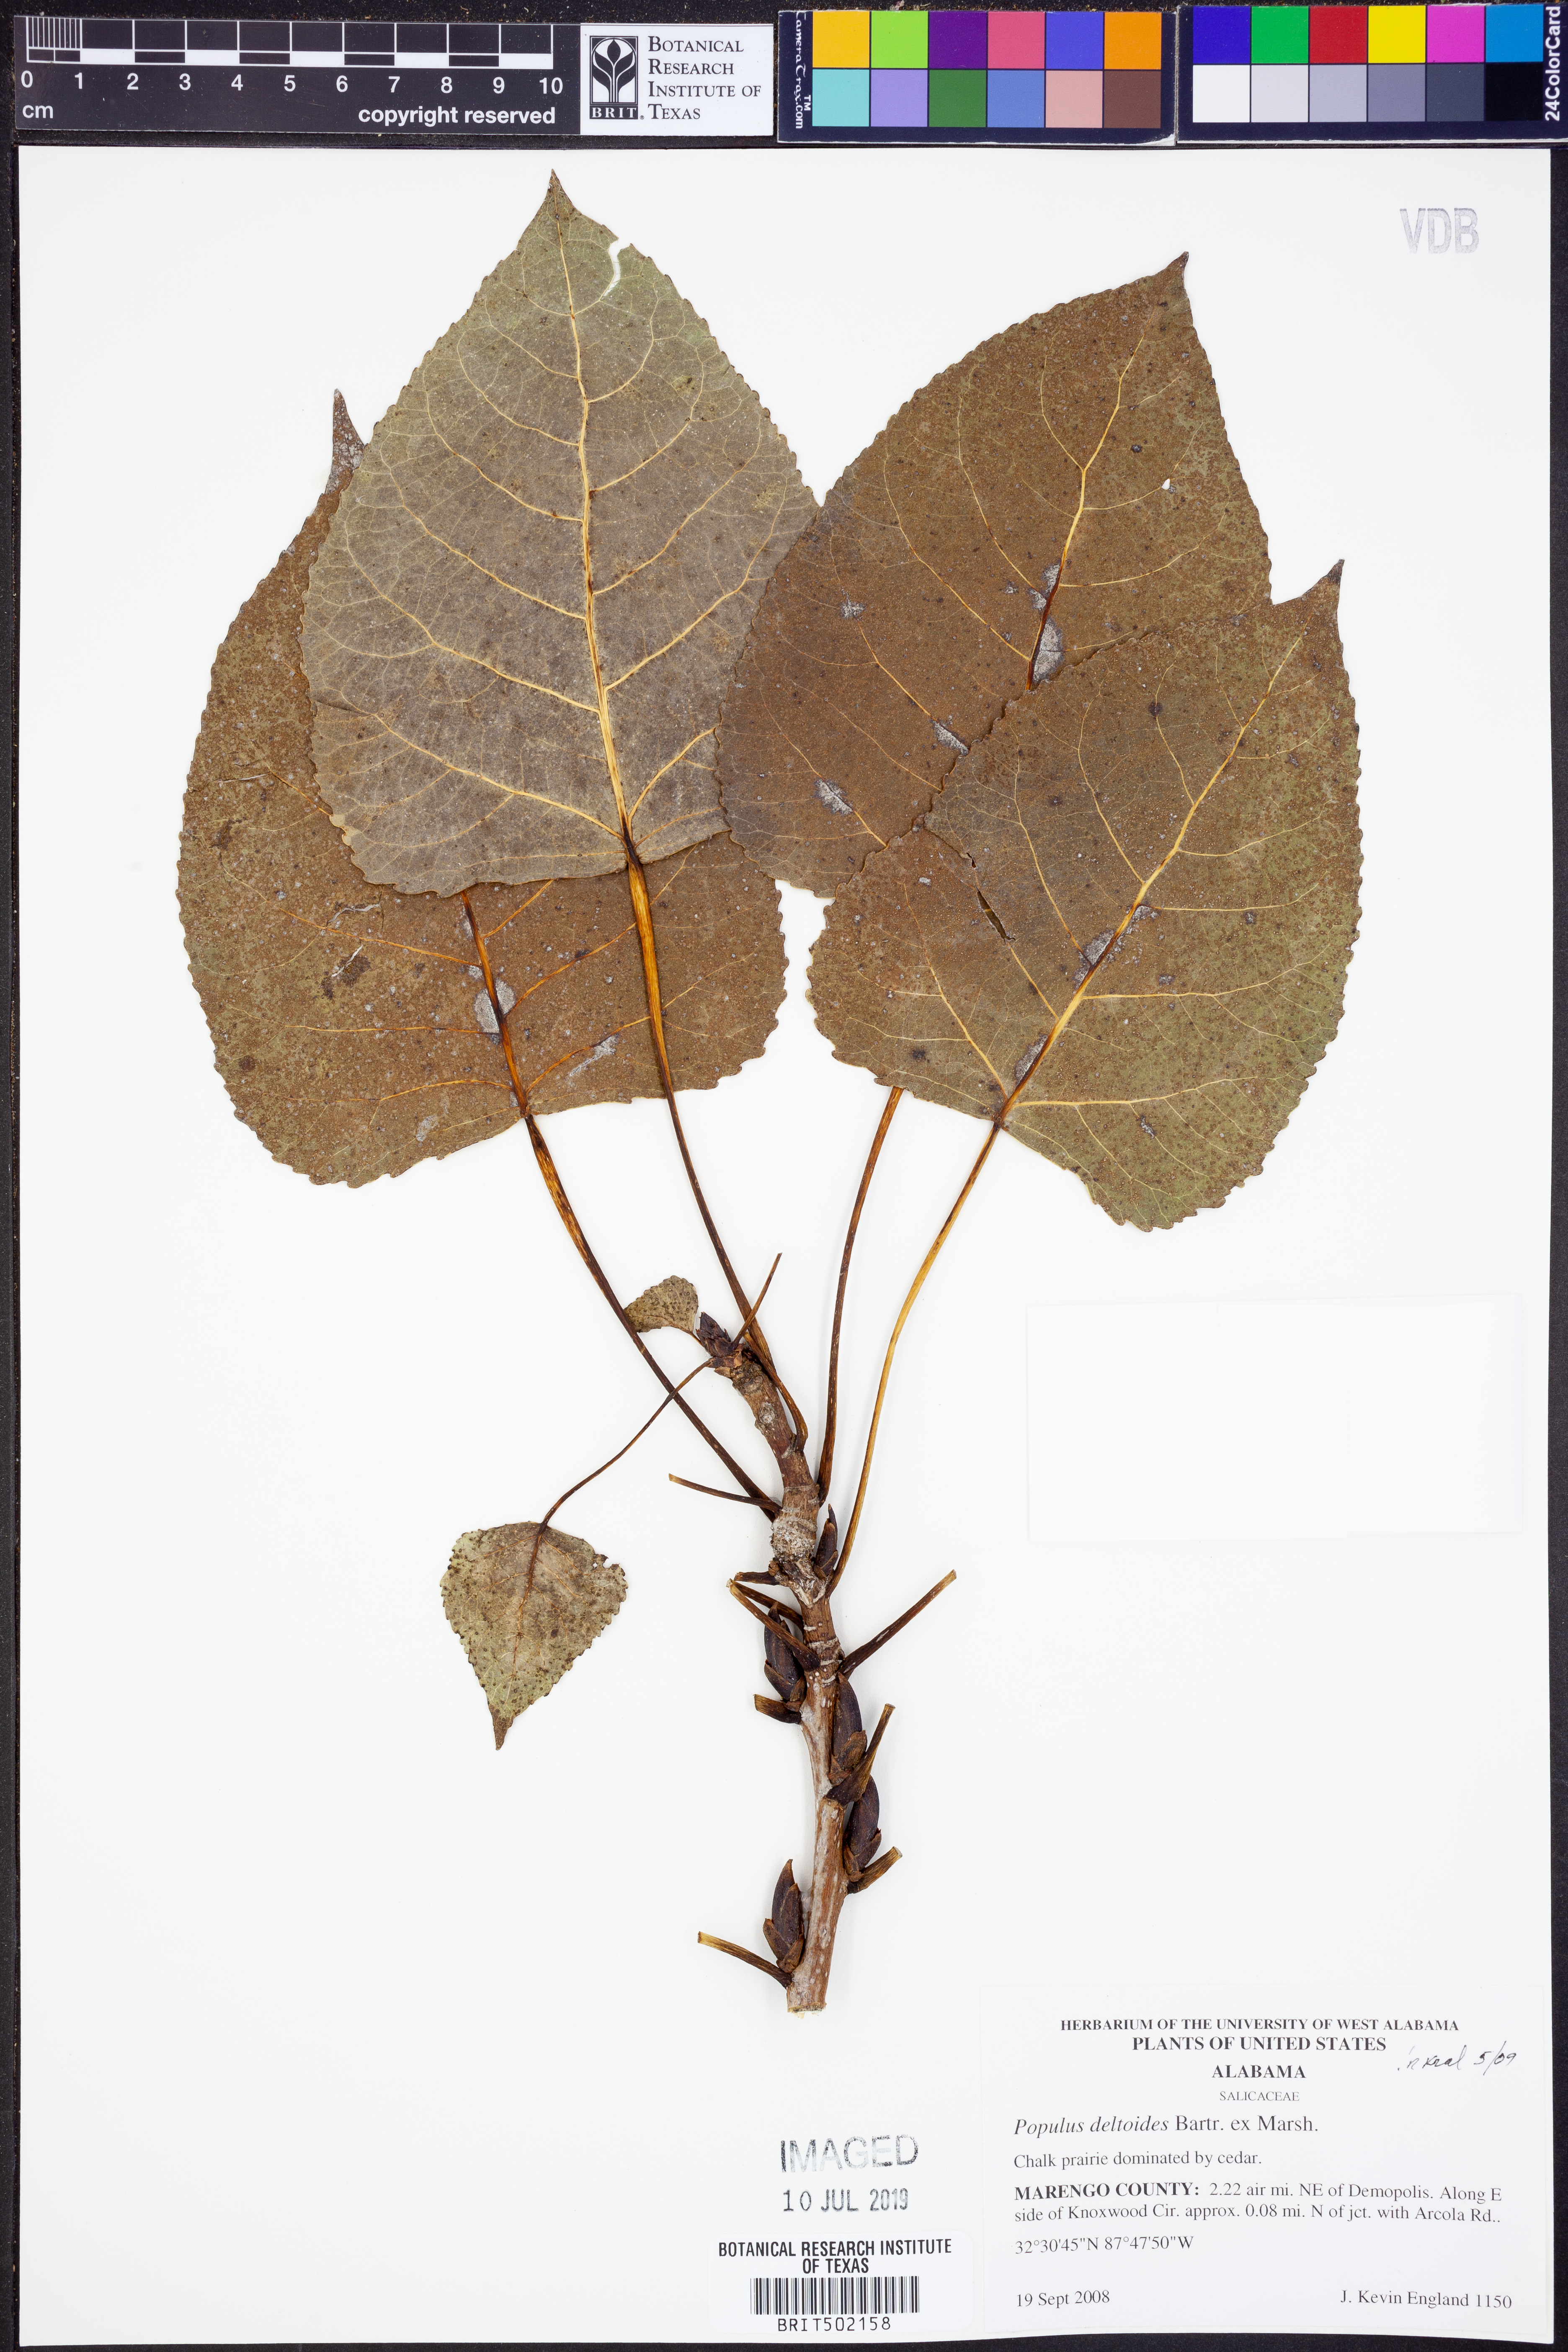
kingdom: Plantae
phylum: Tracheophyta
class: Magnoliopsida
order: Malpighiales
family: Salicaceae
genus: Populus
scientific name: Populus deltoides
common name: Eastern cottonwood
